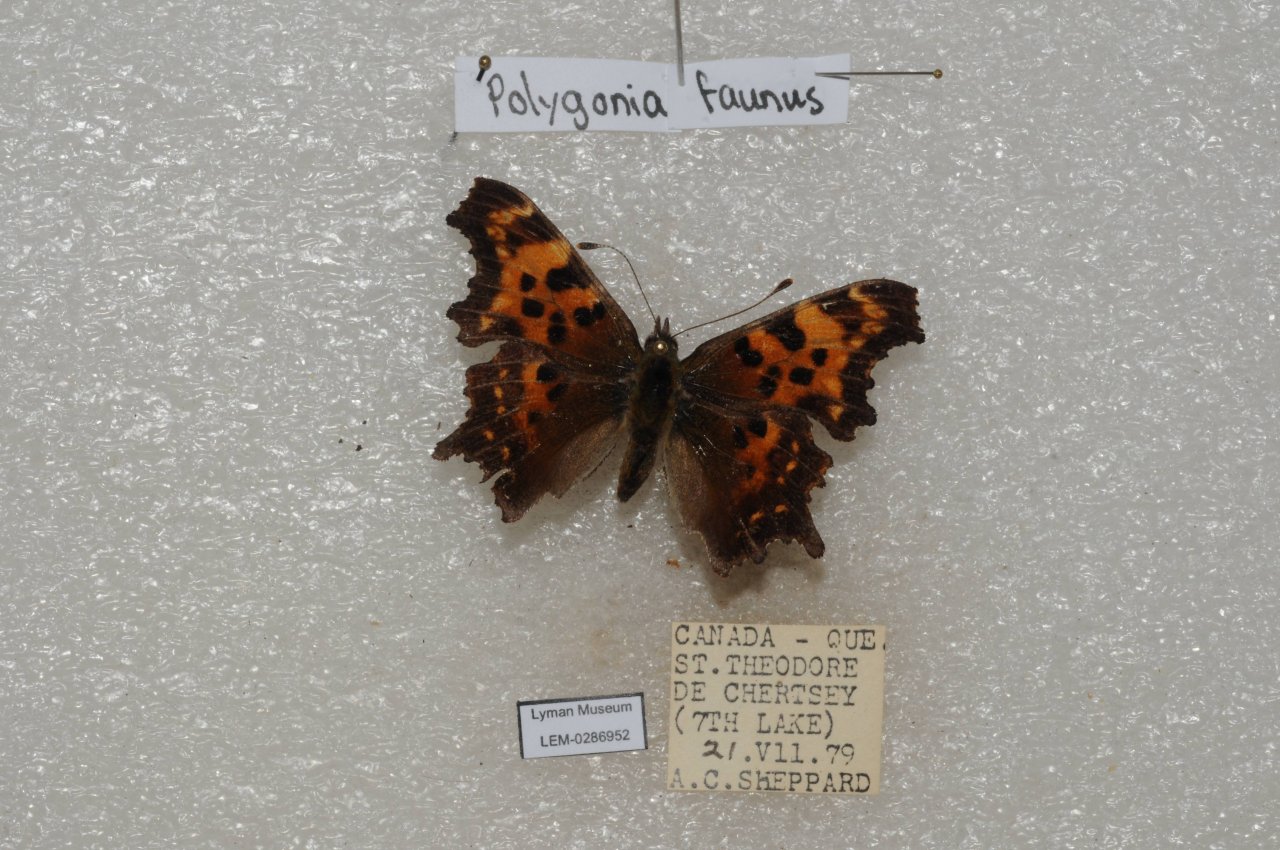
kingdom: Animalia
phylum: Arthropoda
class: Insecta
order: Lepidoptera
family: Nymphalidae
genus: Polygonia
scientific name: Polygonia faunus
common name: Green Comma
